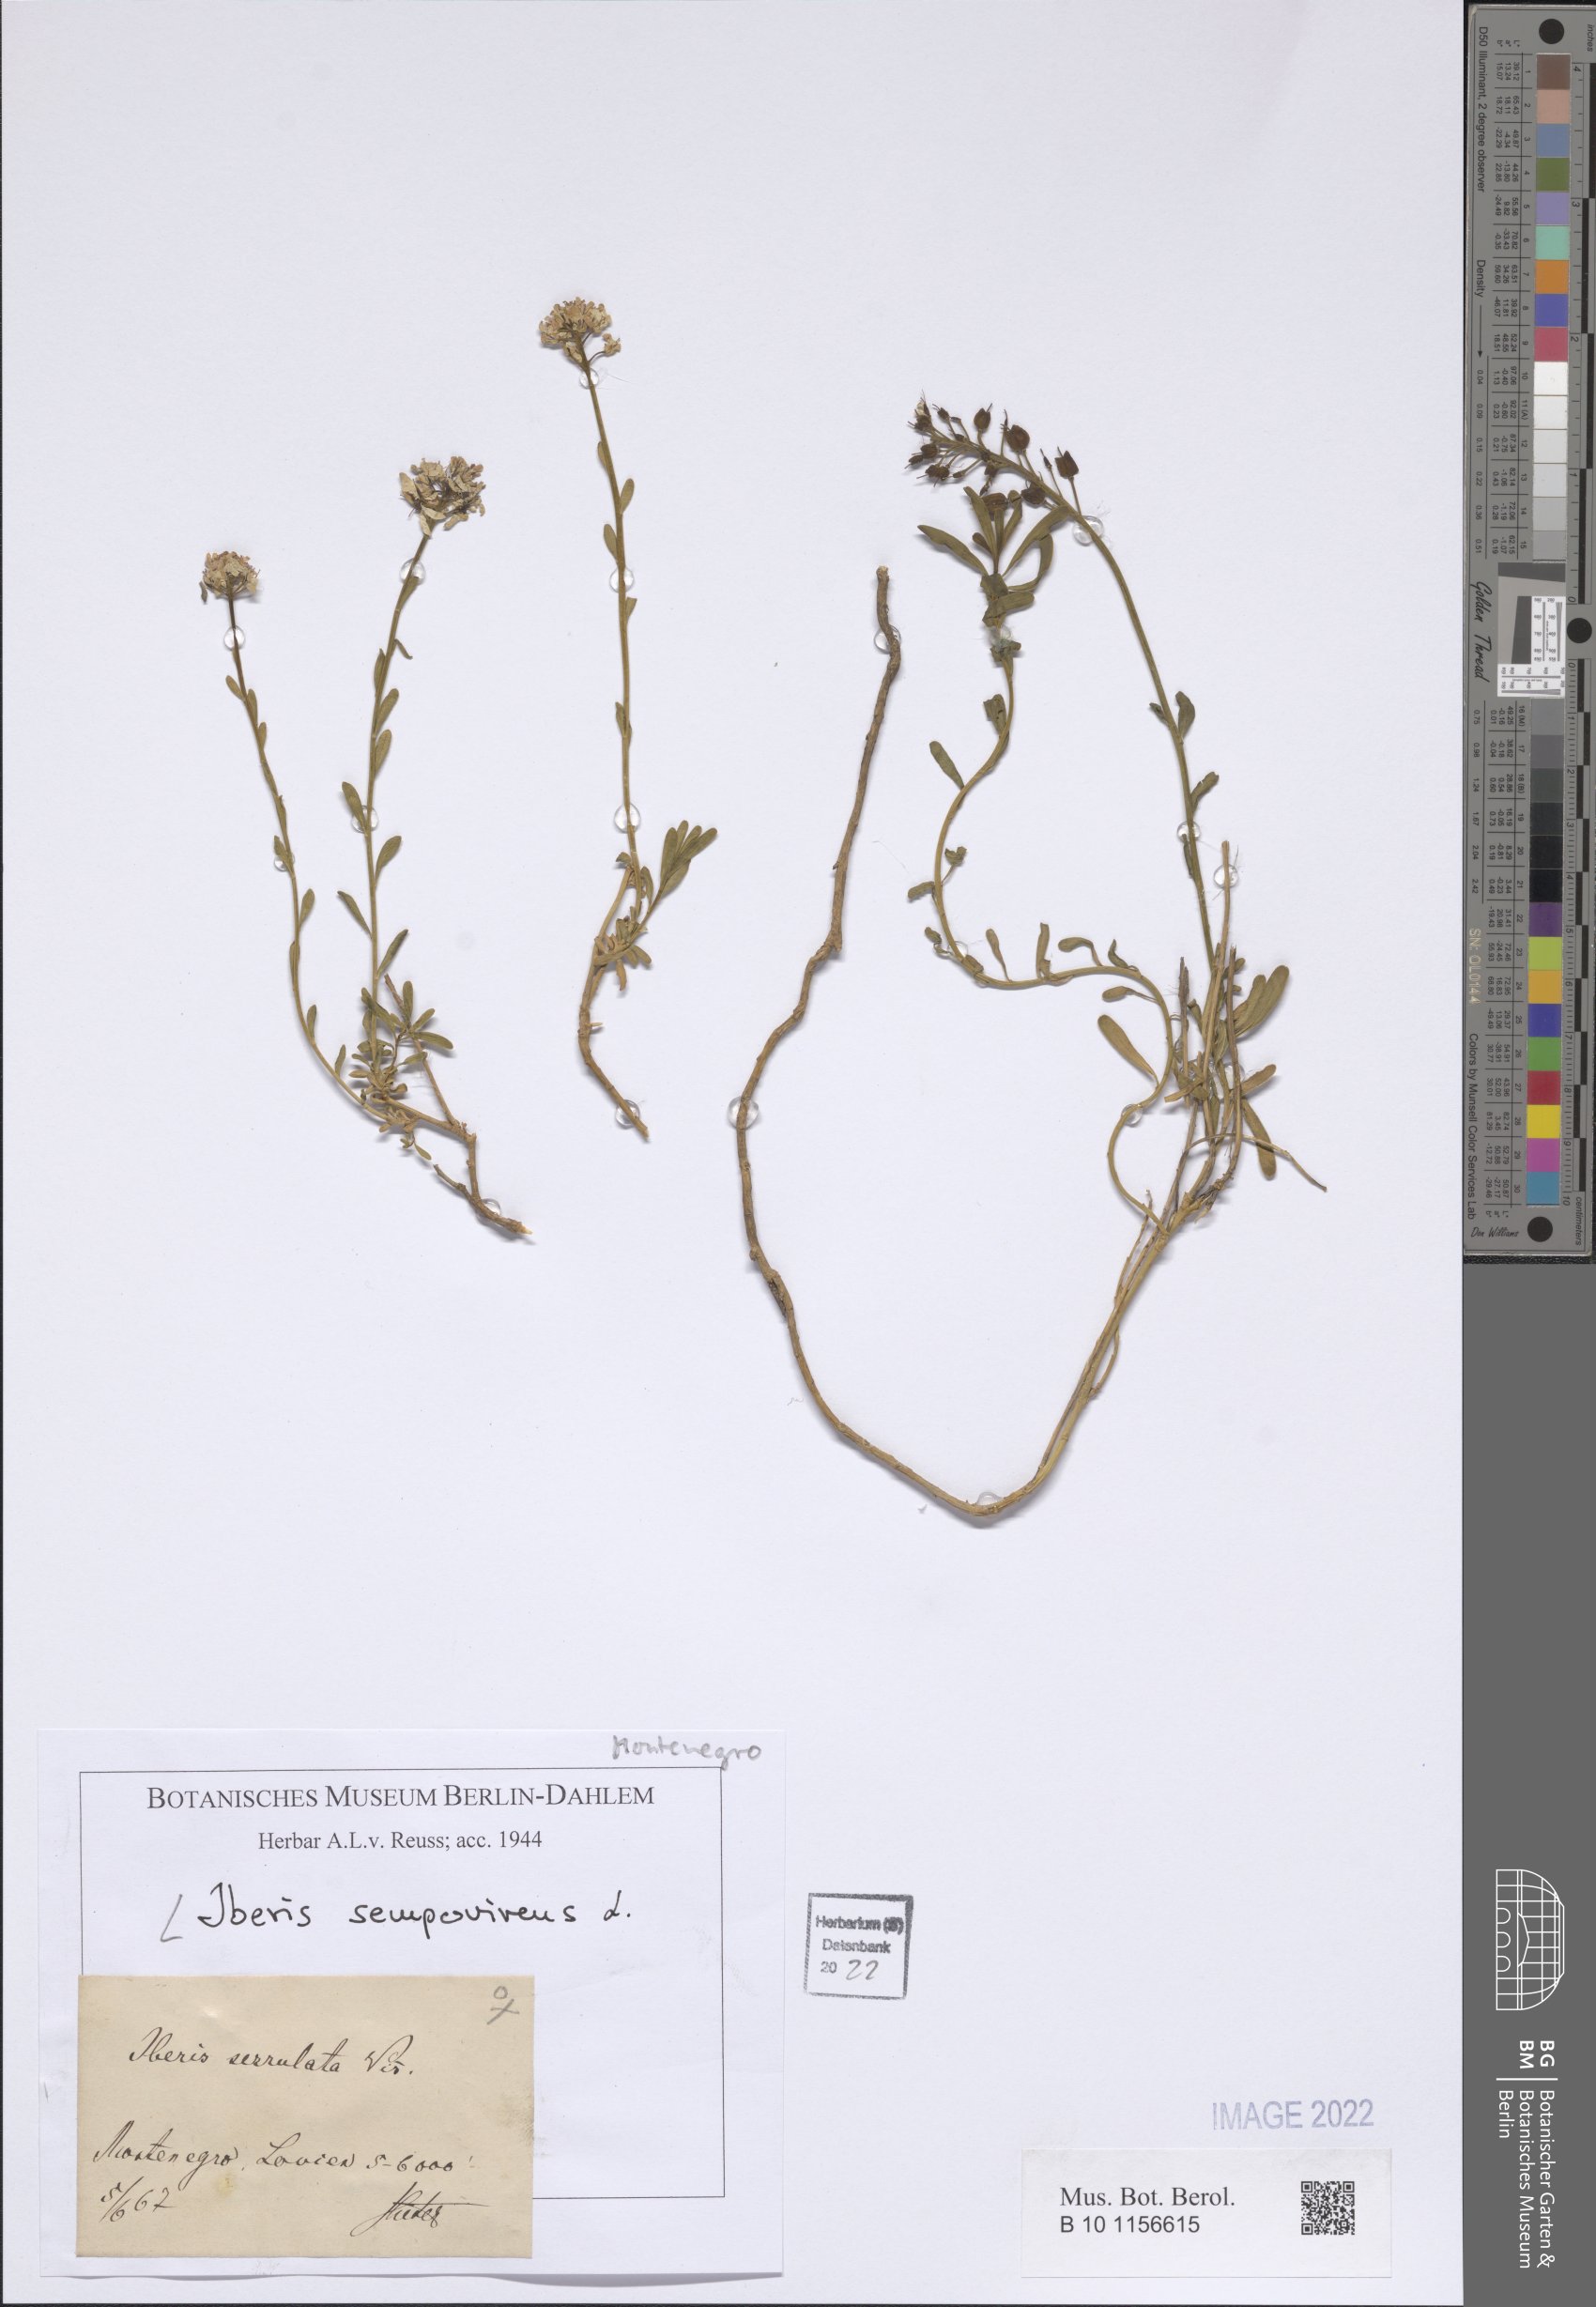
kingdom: Plantae
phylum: Tracheophyta
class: Magnoliopsida
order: Brassicales
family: Brassicaceae
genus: Iberis
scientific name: Iberis sempervirens
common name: Evergreen candytuft
